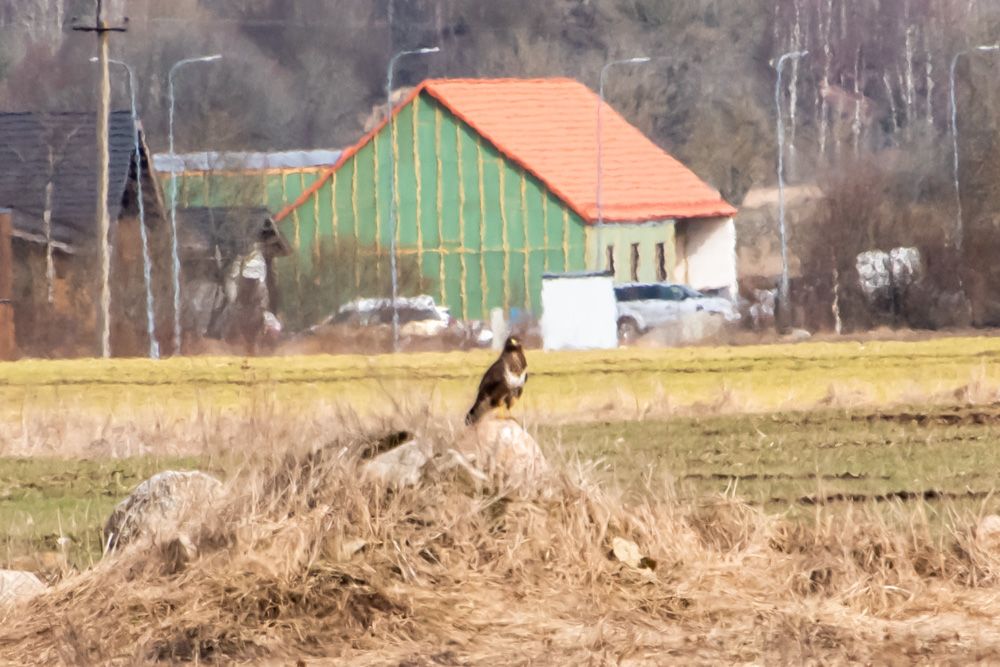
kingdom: Animalia
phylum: Chordata
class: Aves
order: Accipitriformes
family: Accipitridae
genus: Buteo
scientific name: Buteo lagopus
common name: Rough-legged buzzard
